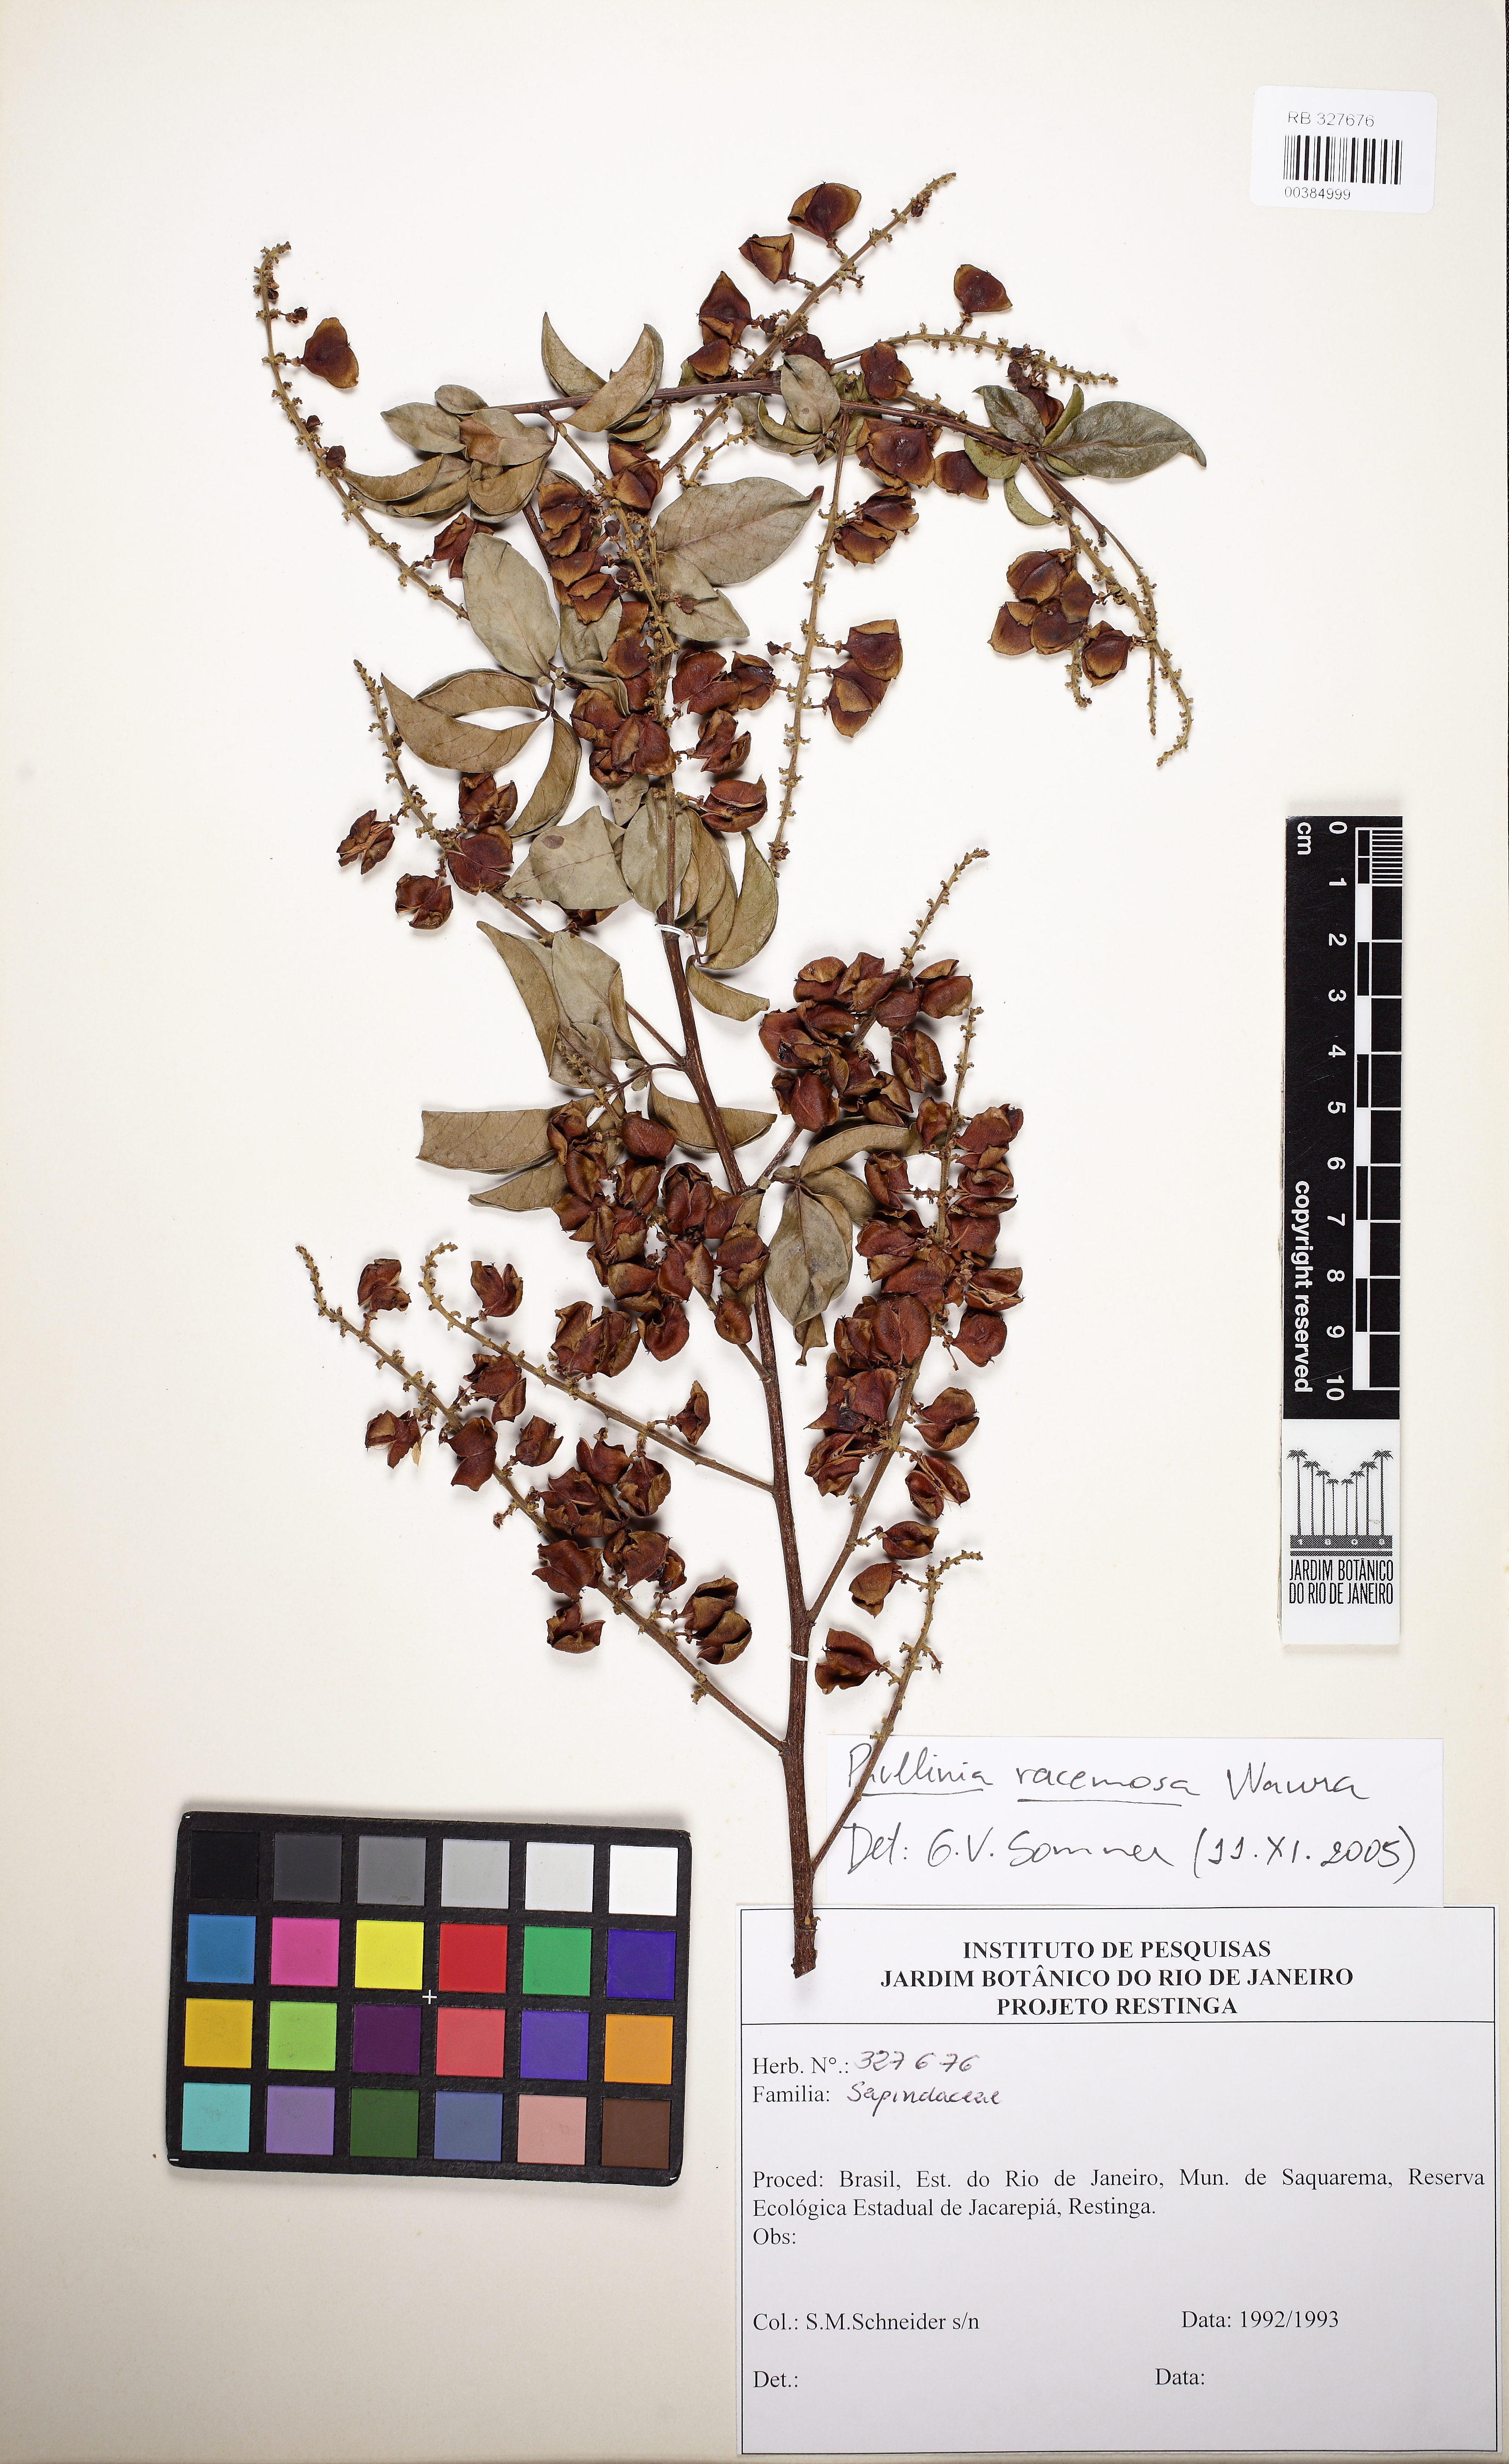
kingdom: Plantae
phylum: Tracheophyta
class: Magnoliopsida
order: Sapindales
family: Sapindaceae
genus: Paullinia
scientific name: Paullinia pseudota
